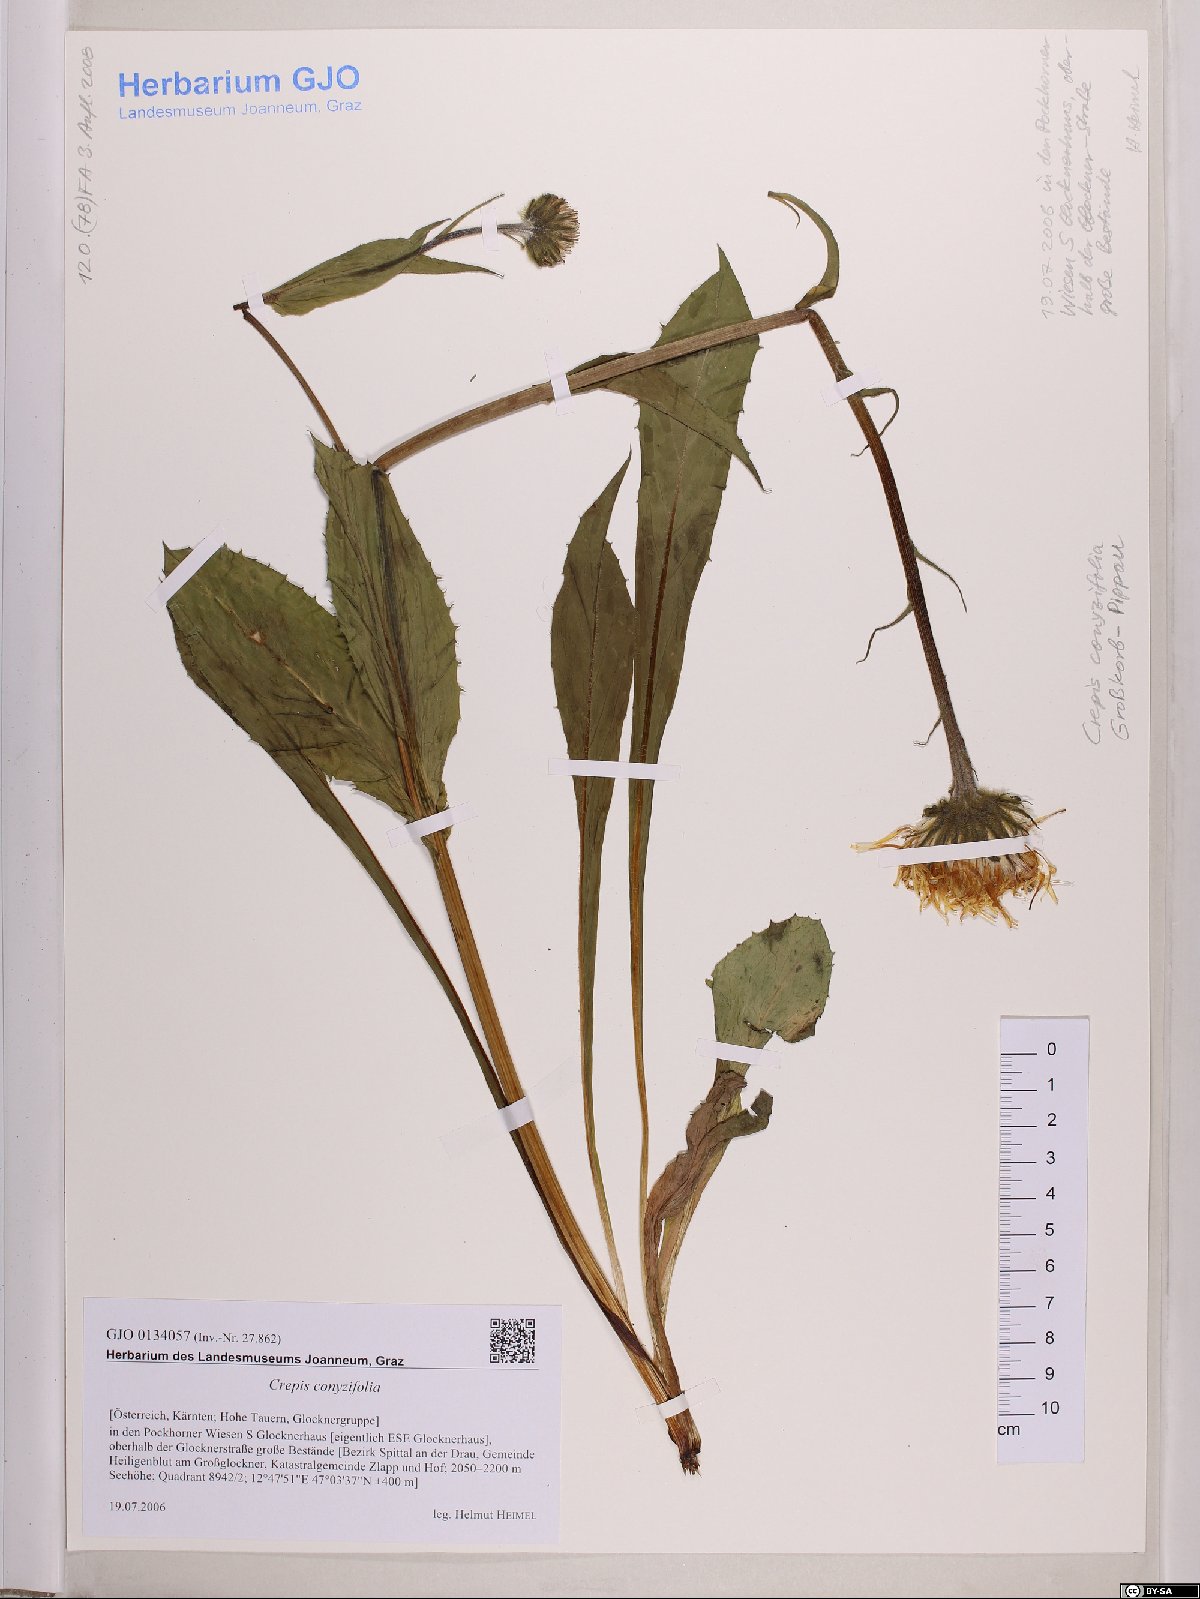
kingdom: Plantae
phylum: Tracheophyta
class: Magnoliopsida
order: Asterales
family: Asteraceae
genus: Crepis
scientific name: Crepis blattarioides
